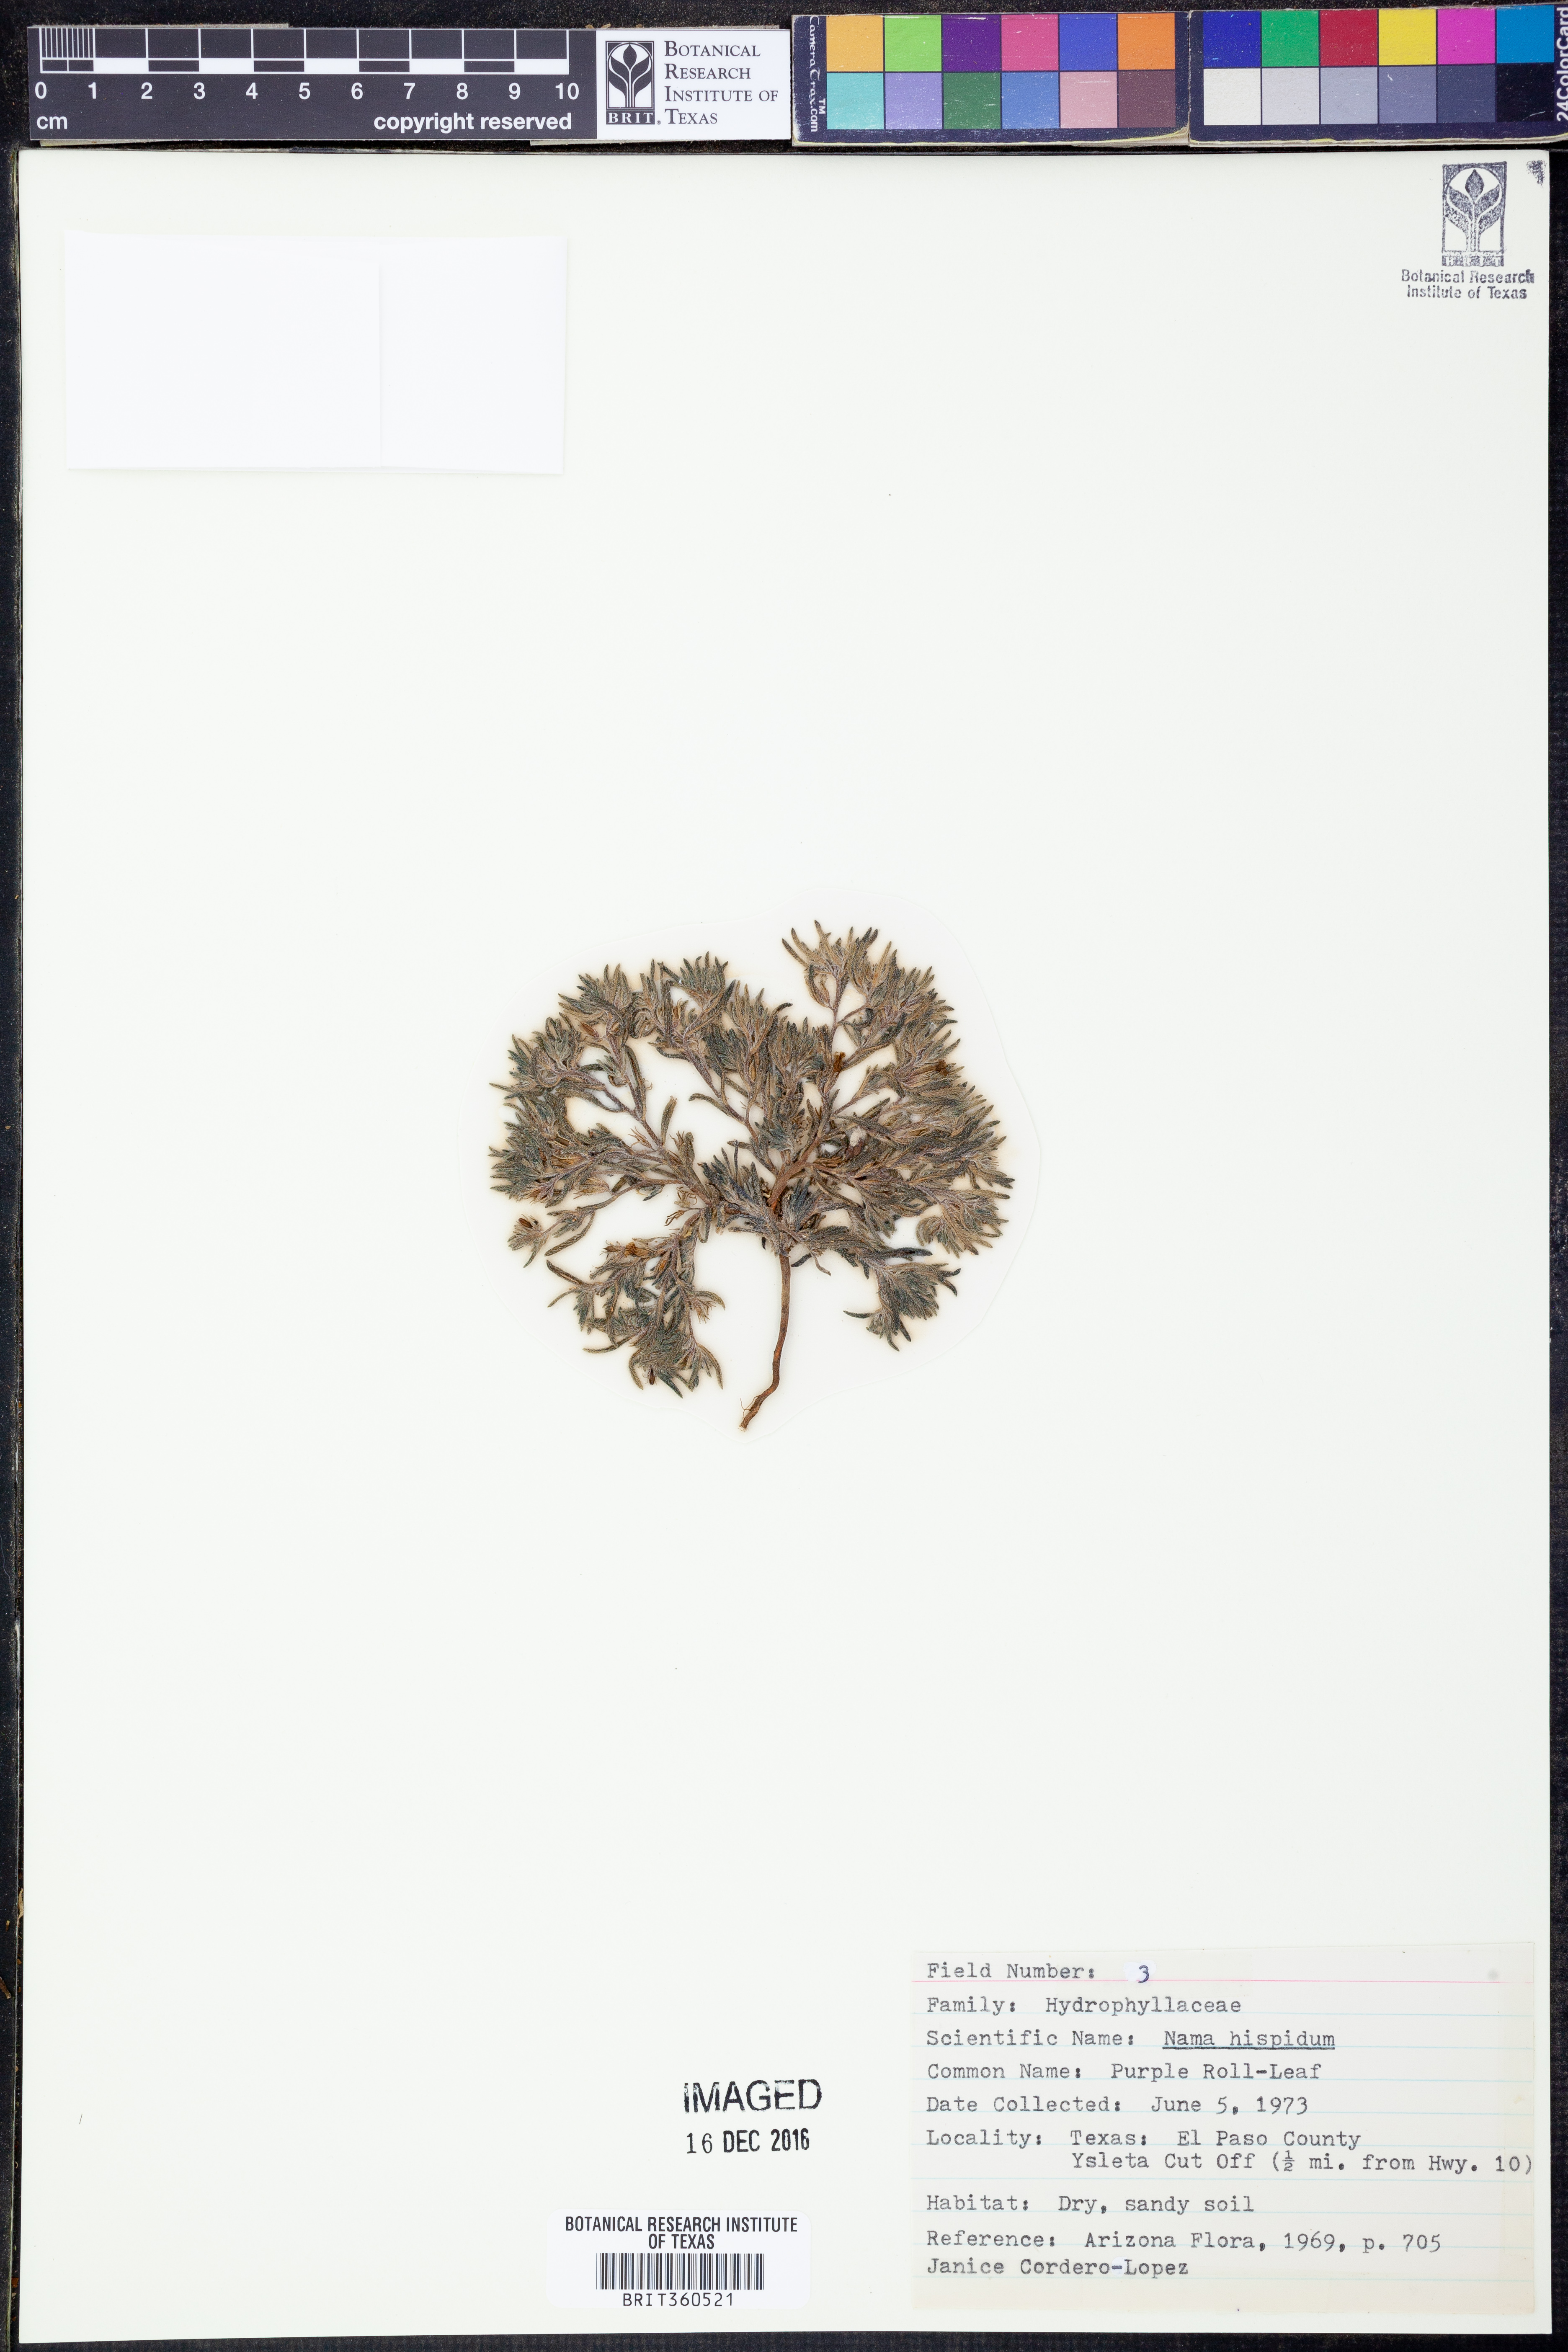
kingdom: Plantae
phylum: Tracheophyta
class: Magnoliopsida
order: Boraginales
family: Namaceae
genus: Nama
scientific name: Nama hispida
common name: Bristly nama
